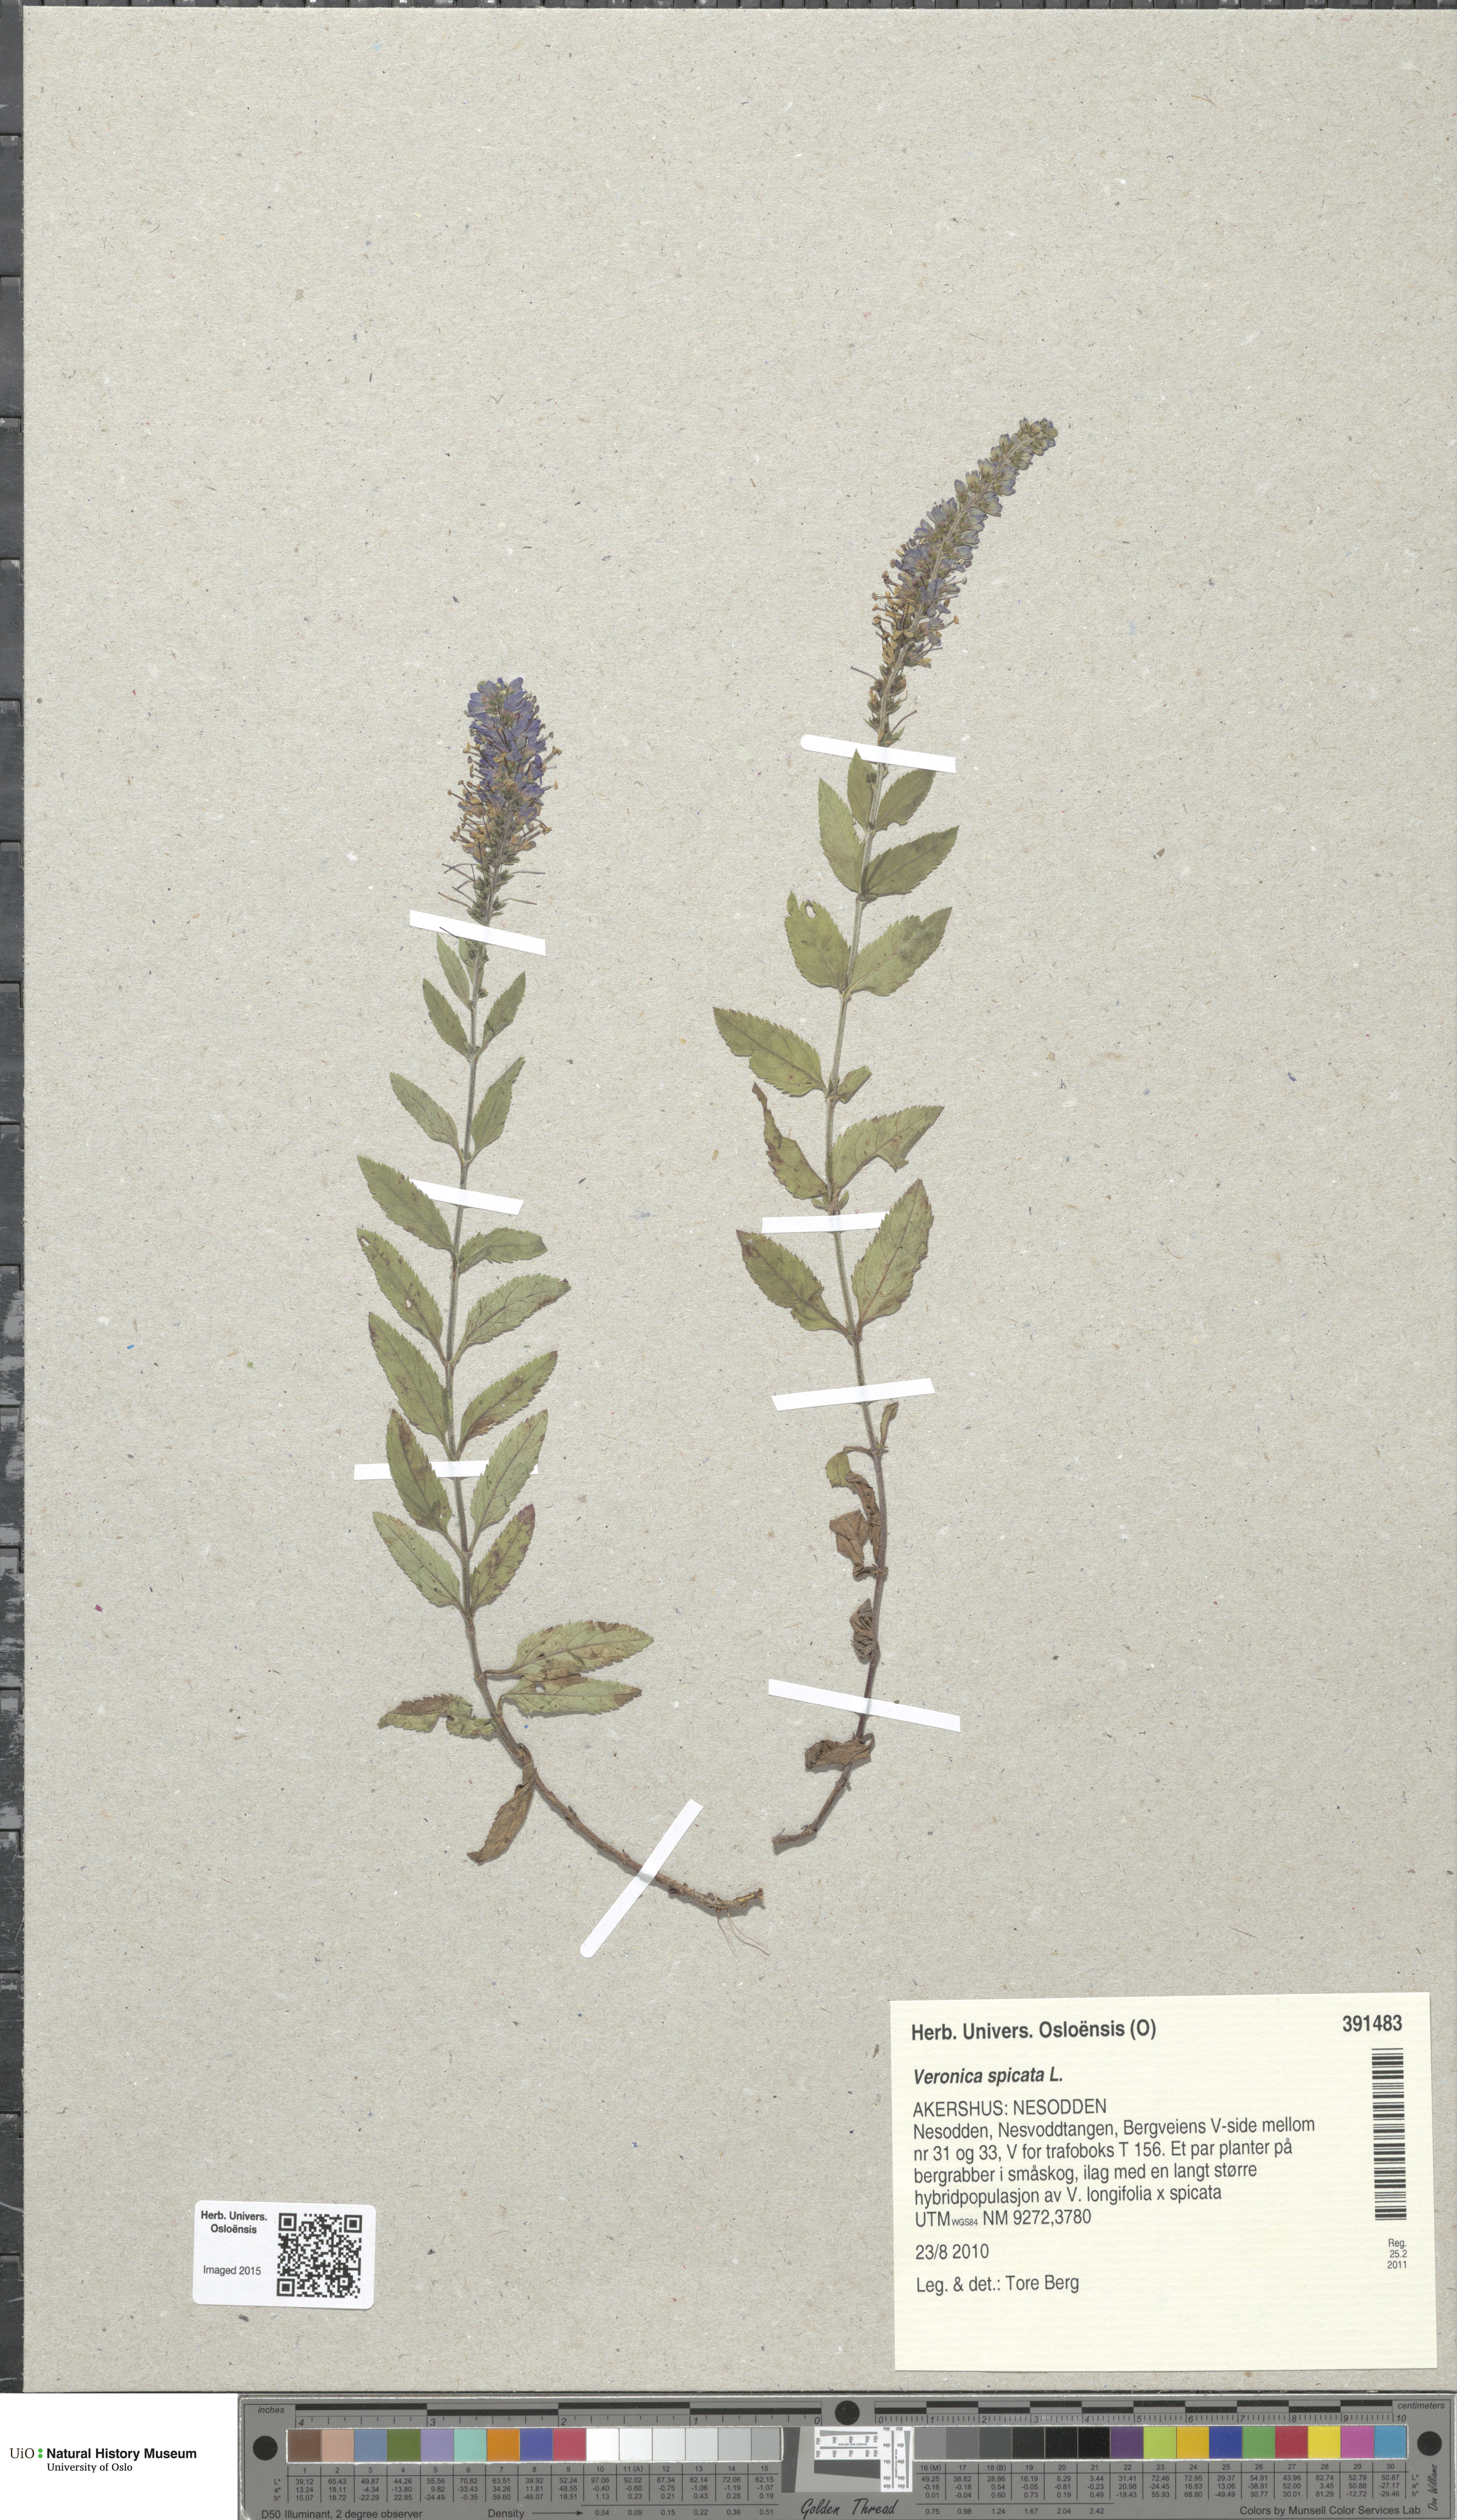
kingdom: Plantae
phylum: Tracheophyta
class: Magnoliopsida
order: Lamiales
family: Plantaginaceae
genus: Veronica
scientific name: Veronica spicata
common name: Spiked speedwell
